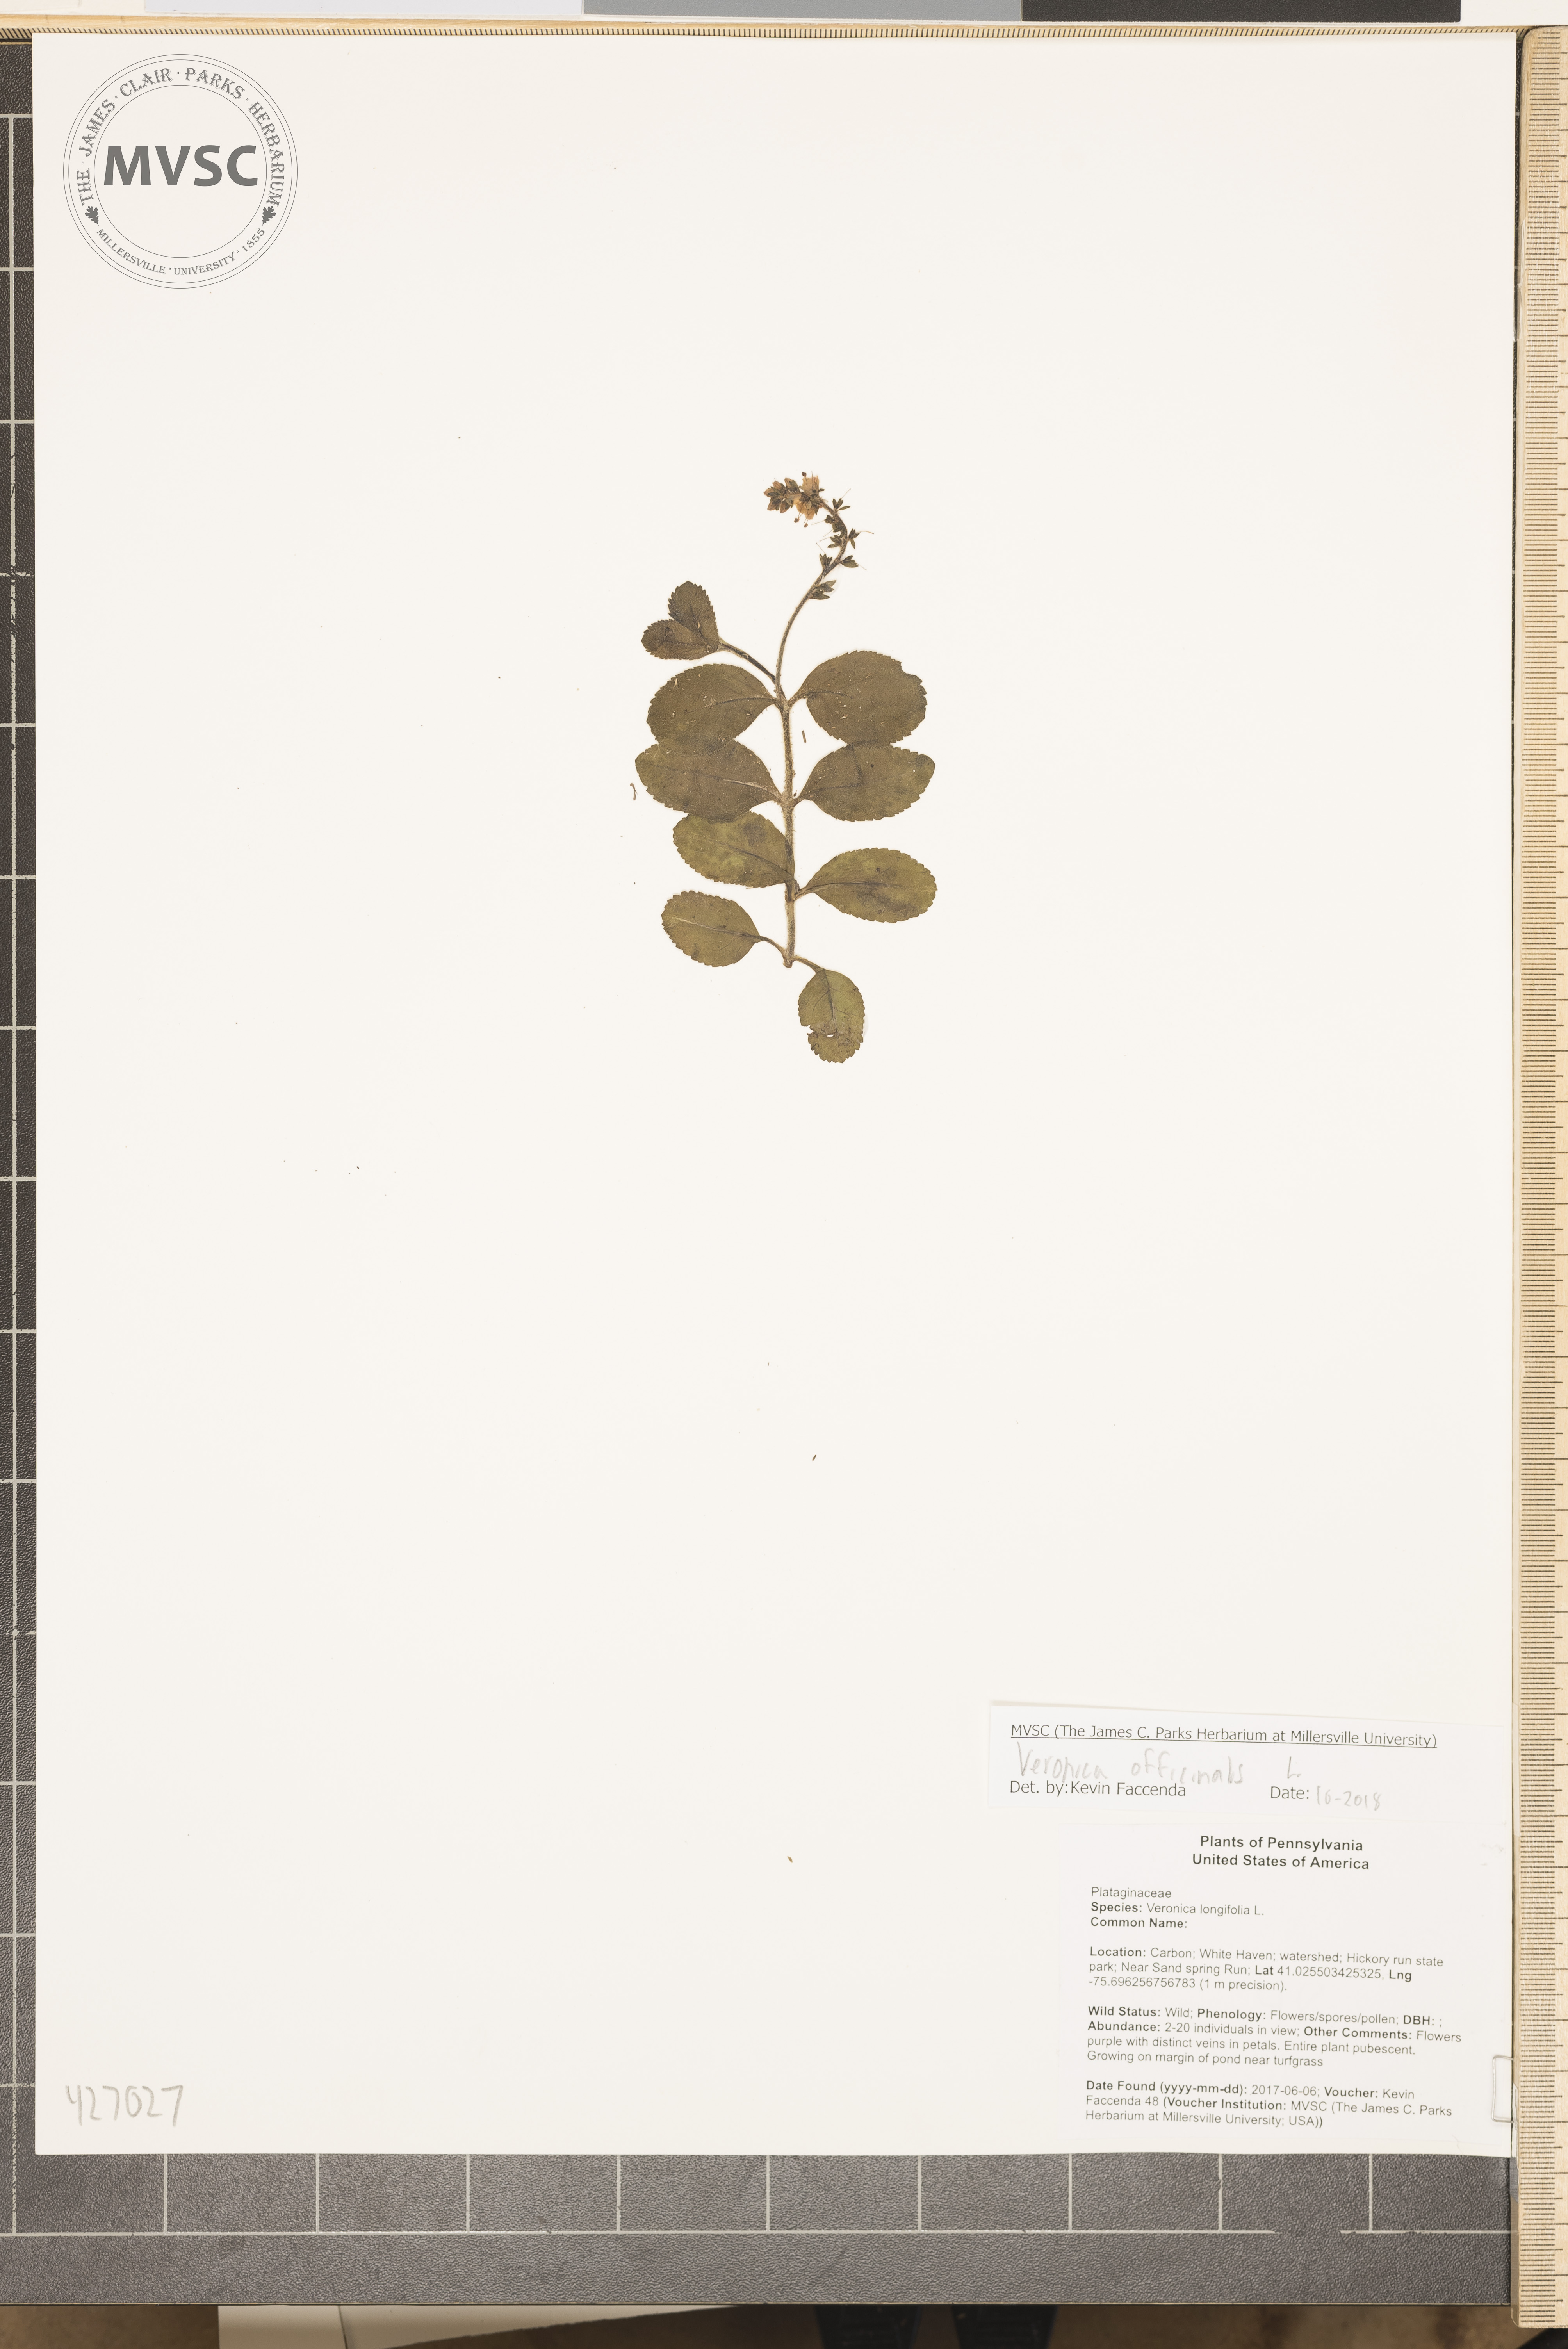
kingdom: Plantae
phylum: Tracheophyta
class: Magnoliopsida
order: Lamiales
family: Plantaginaceae
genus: Veronica
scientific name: Veronica officinalis
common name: Common speedwell
